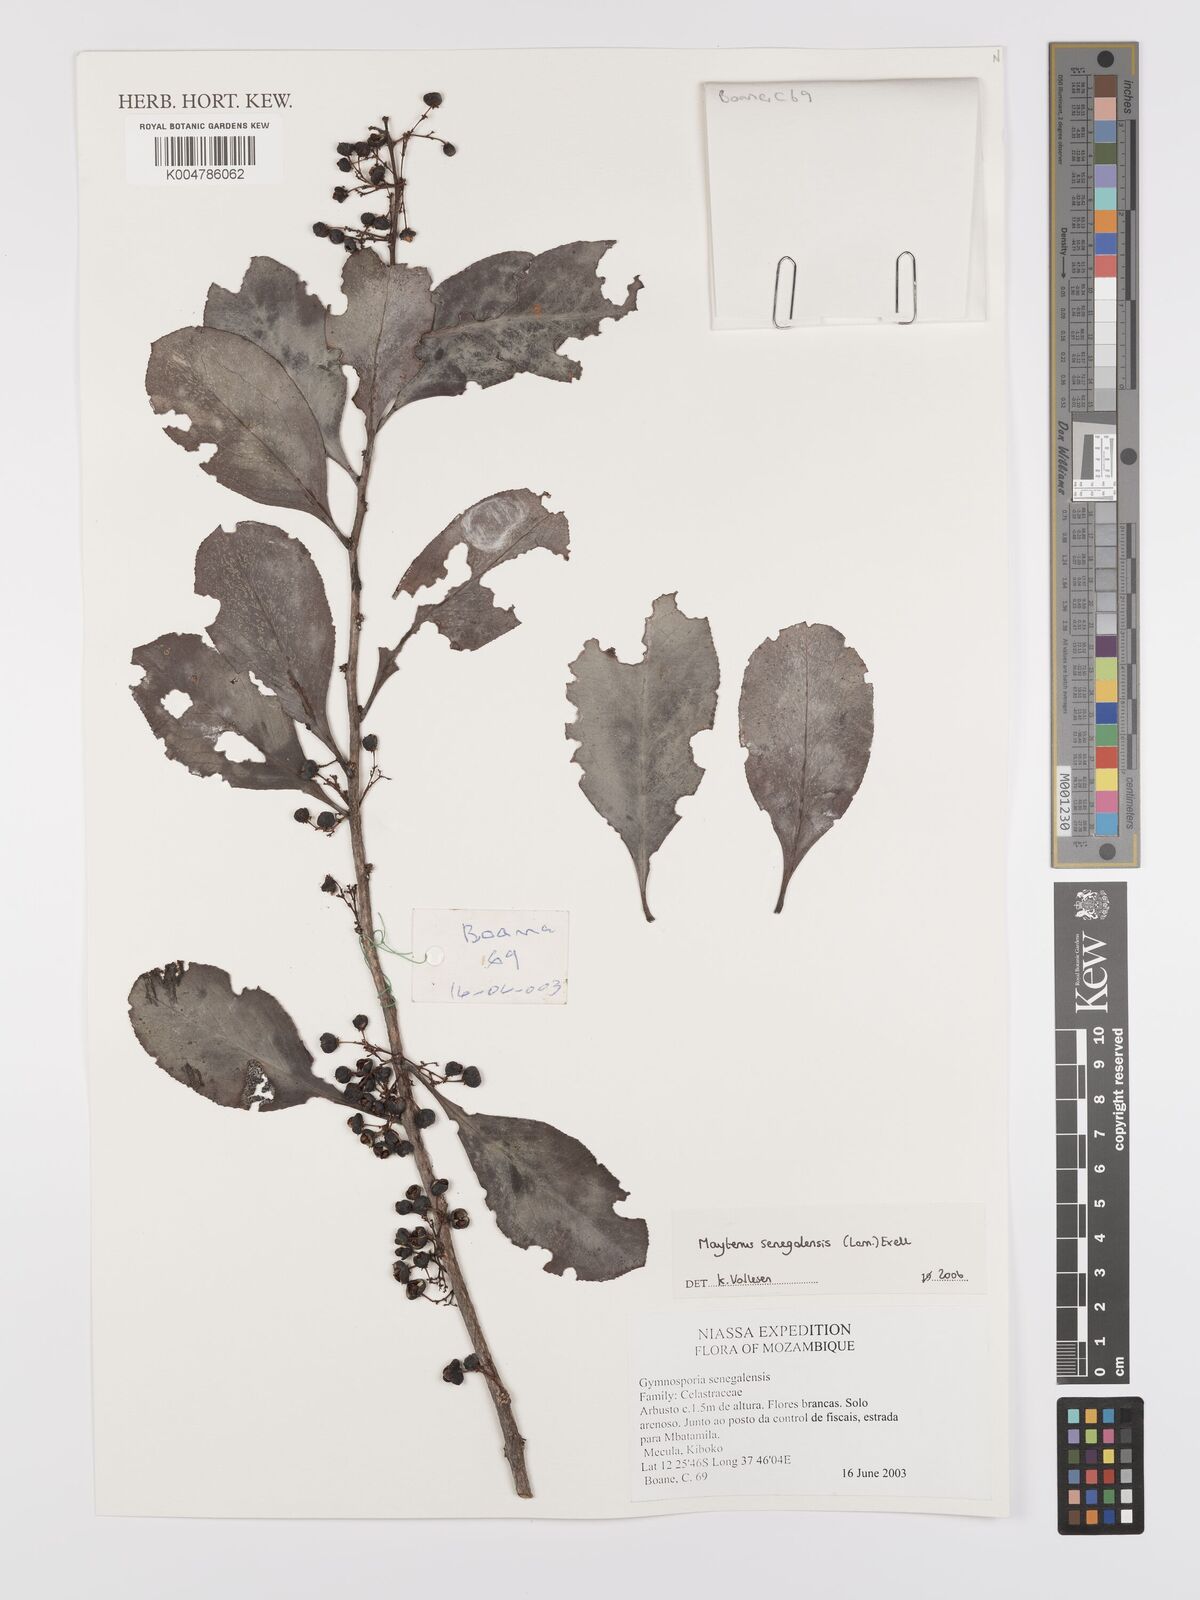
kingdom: Plantae
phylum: Tracheophyta
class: Magnoliopsida
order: Celastrales
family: Celastraceae
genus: Gymnosporia
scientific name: Gymnosporia senegalensis
